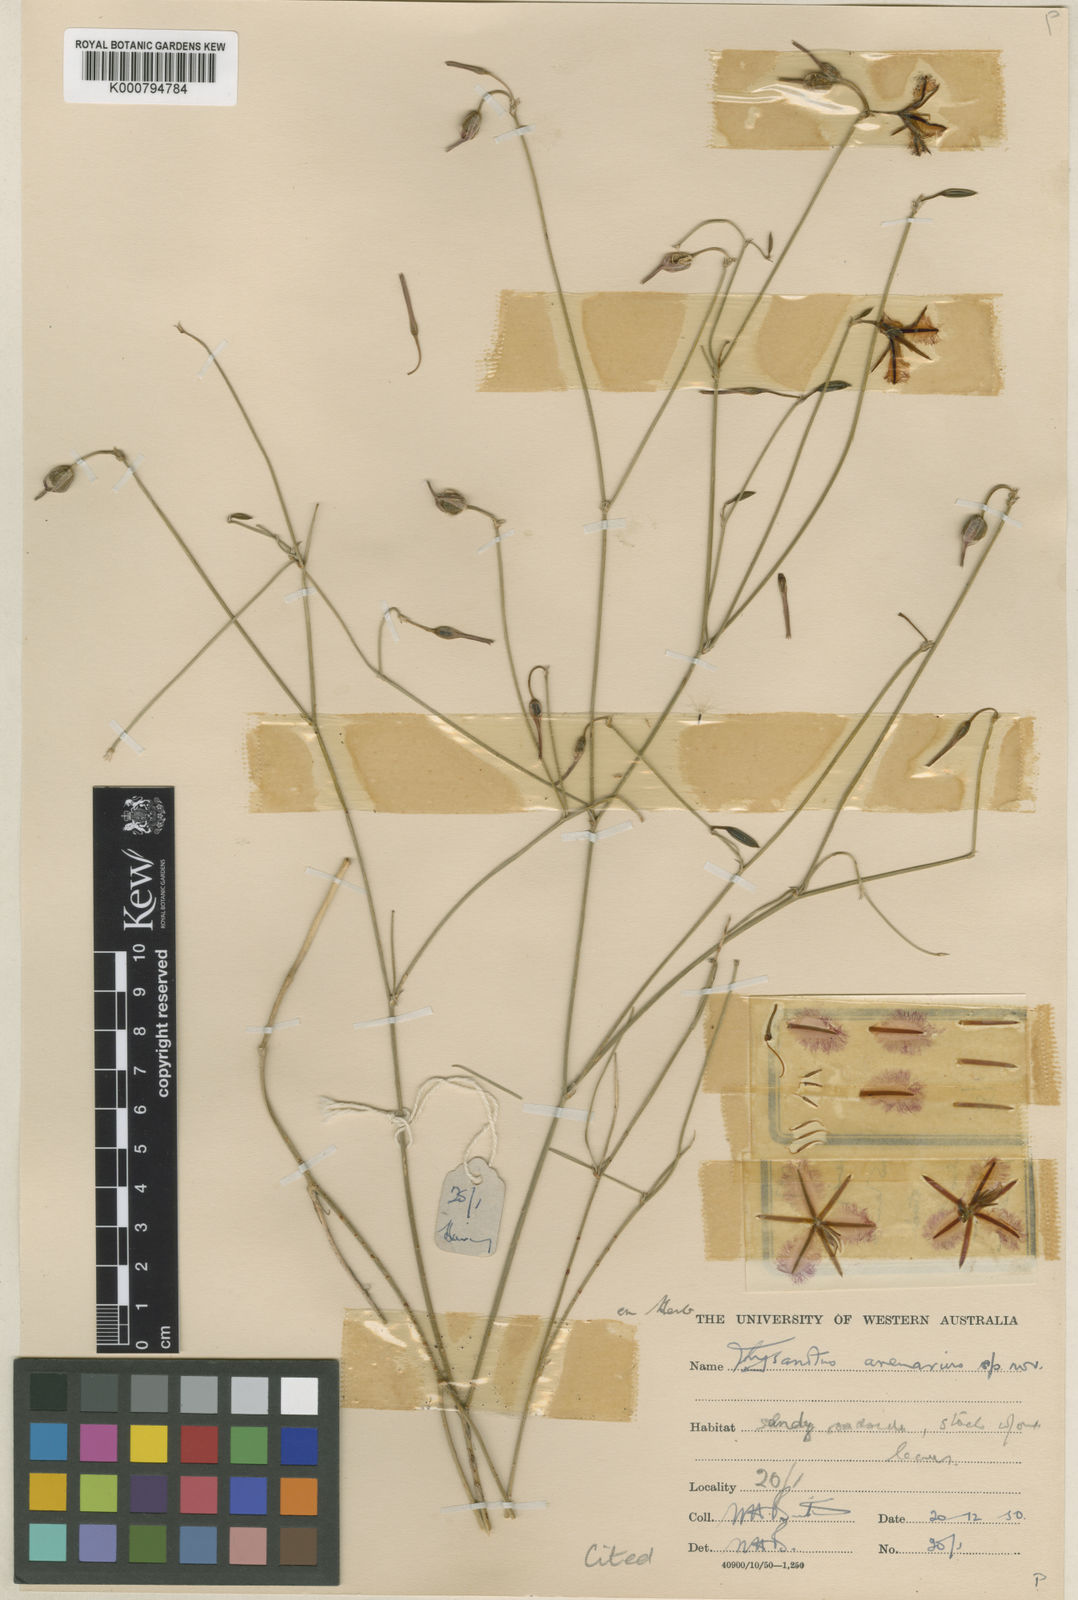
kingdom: Plantae
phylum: Tracheophyta
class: Liliopsida
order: Asparagales
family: Asparagaceae
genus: Thysanotus
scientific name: Thysanotus arenarius
